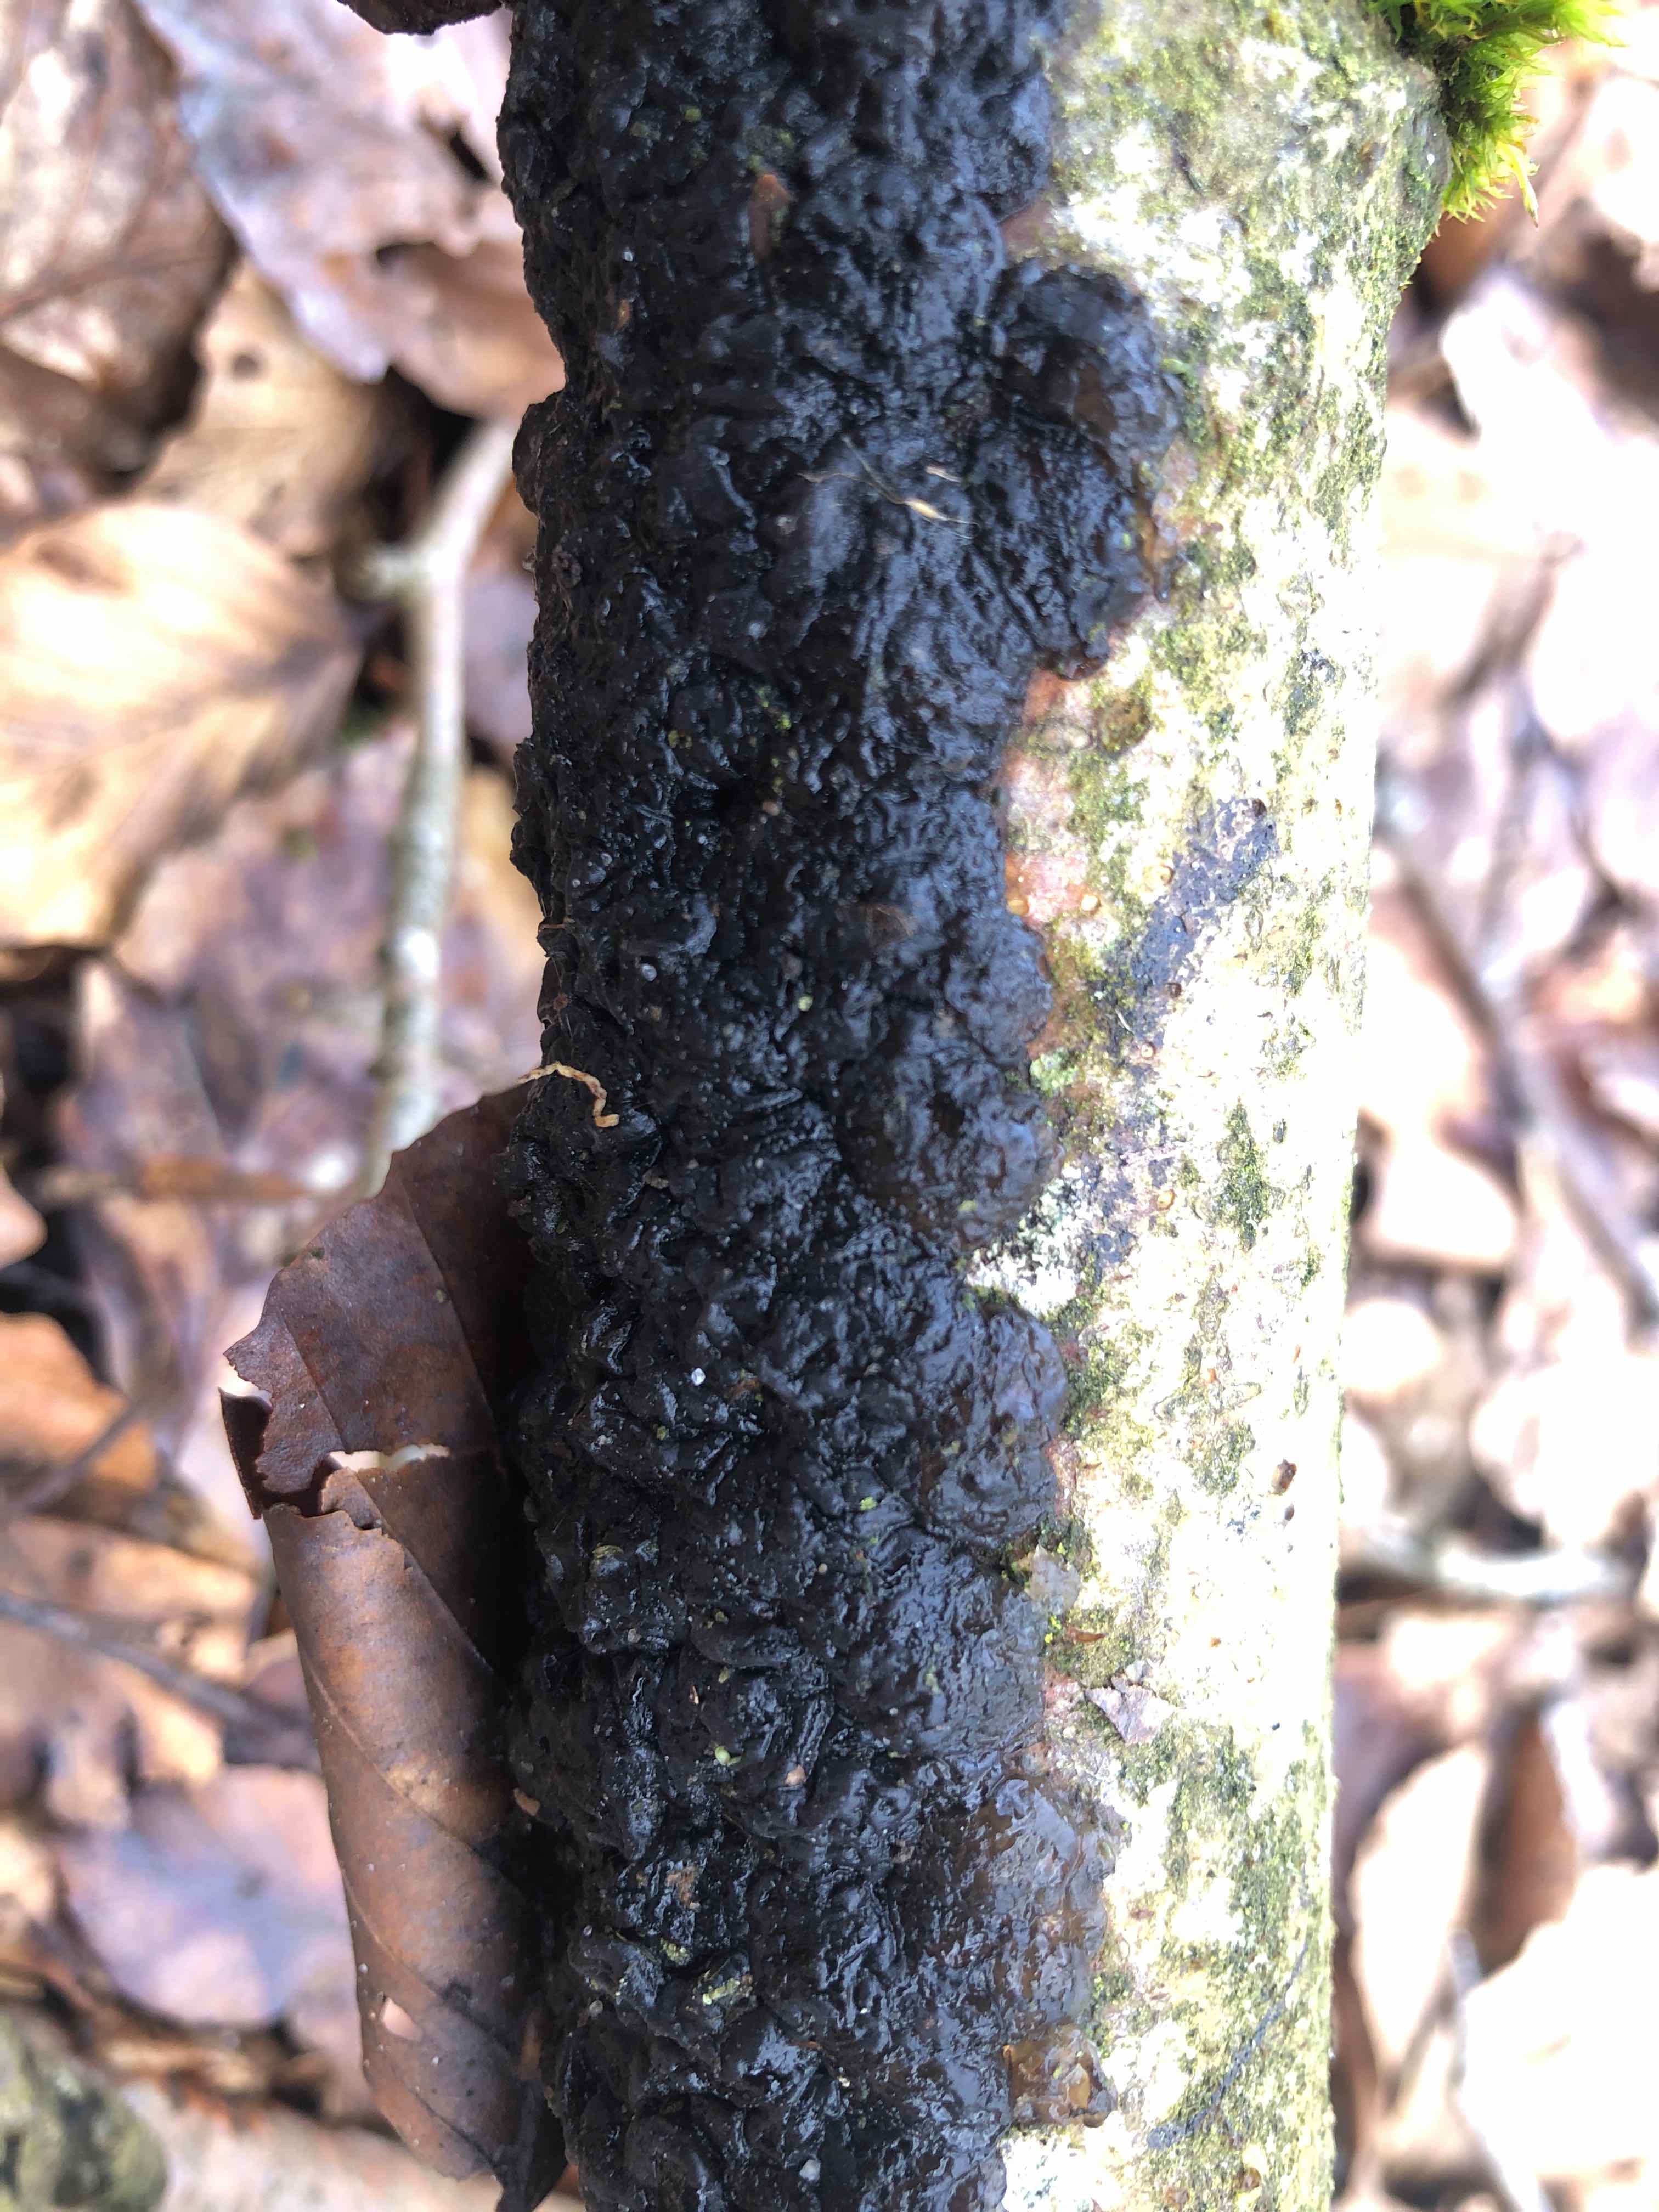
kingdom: Fungi
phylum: Basidiomycota
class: Agaricomycetes
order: Auriculariales
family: Auriculariaceae
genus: Exidia
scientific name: Exidia nigricans
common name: almindelig bævretop
